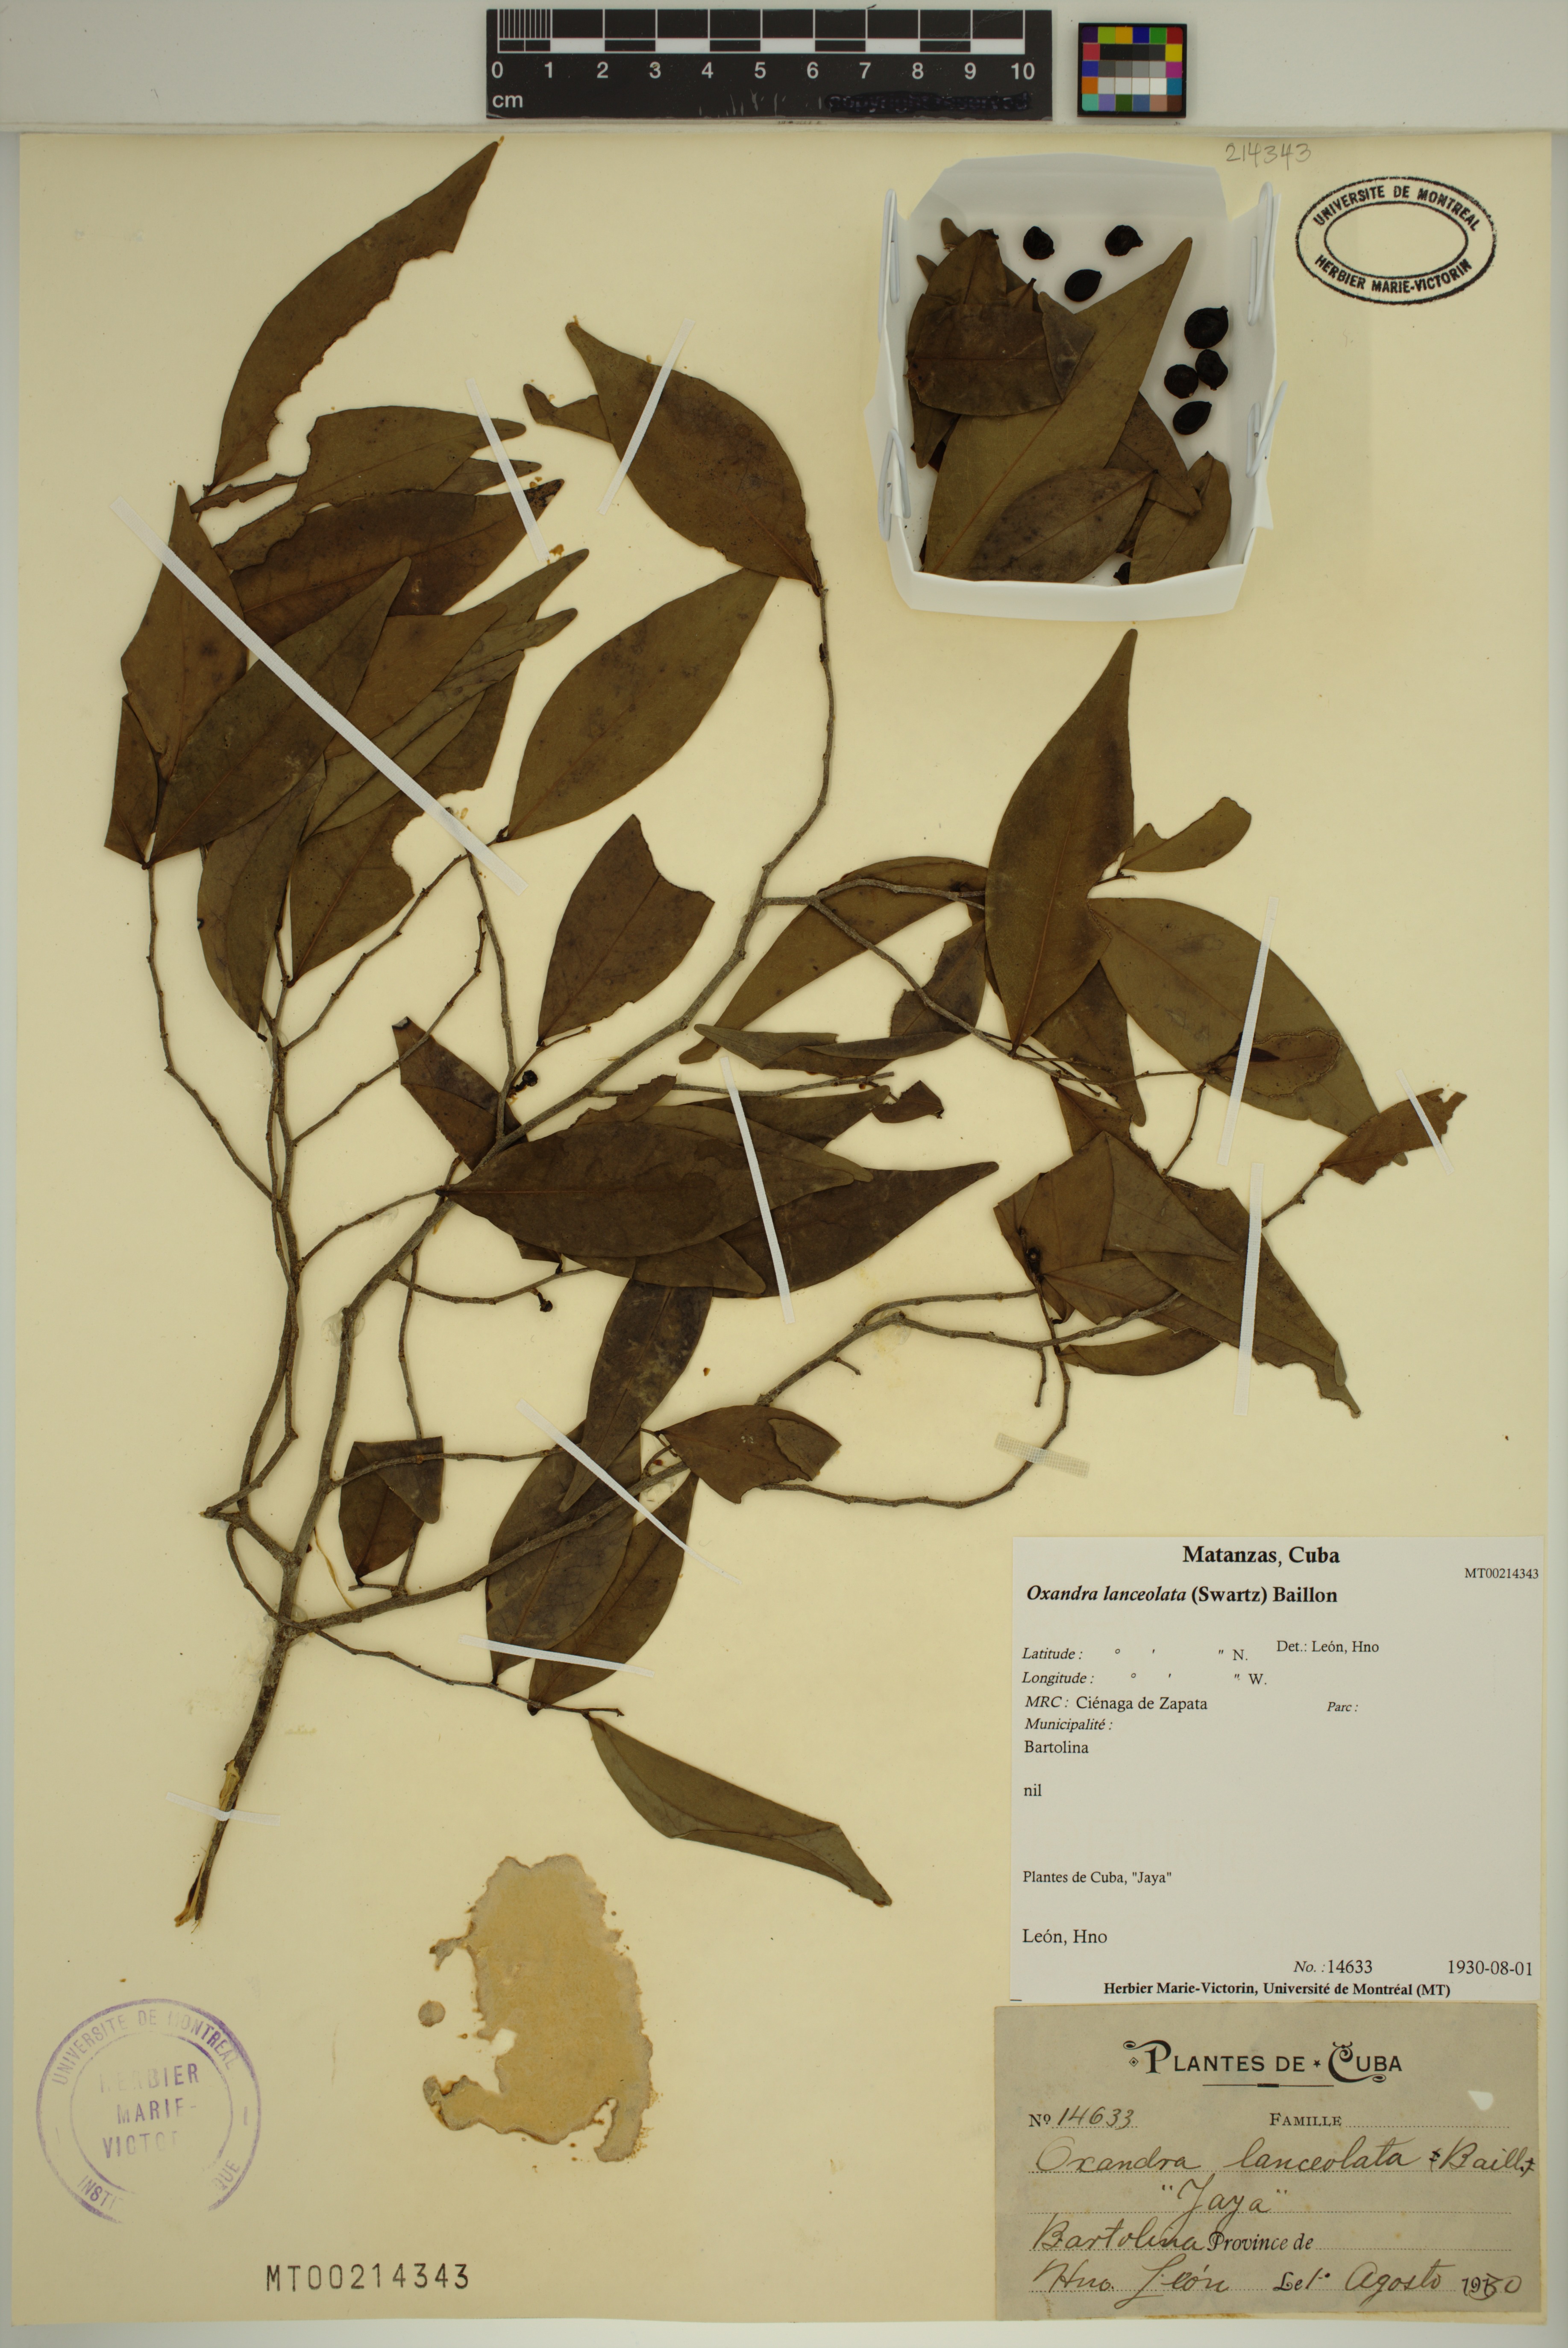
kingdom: Plantae
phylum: Tracheophyta
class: Magnoliopsida
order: Magnoliales
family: Annonaceae
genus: Oxandra
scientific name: Oxandra lanceolata
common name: Lancewood
